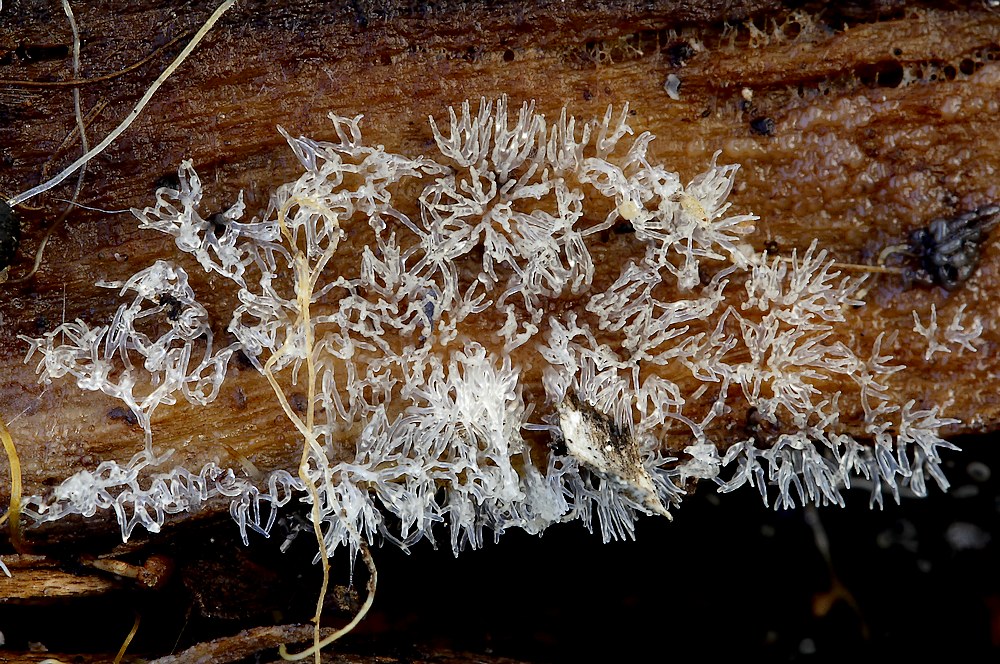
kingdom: Protozoa
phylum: Mycetozoa
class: Protosteliomycetes
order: Ceratiomyxales
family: Ceratiomyxaceae
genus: Ceratiomyxa
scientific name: Ceratiomyxa fruticulosa
